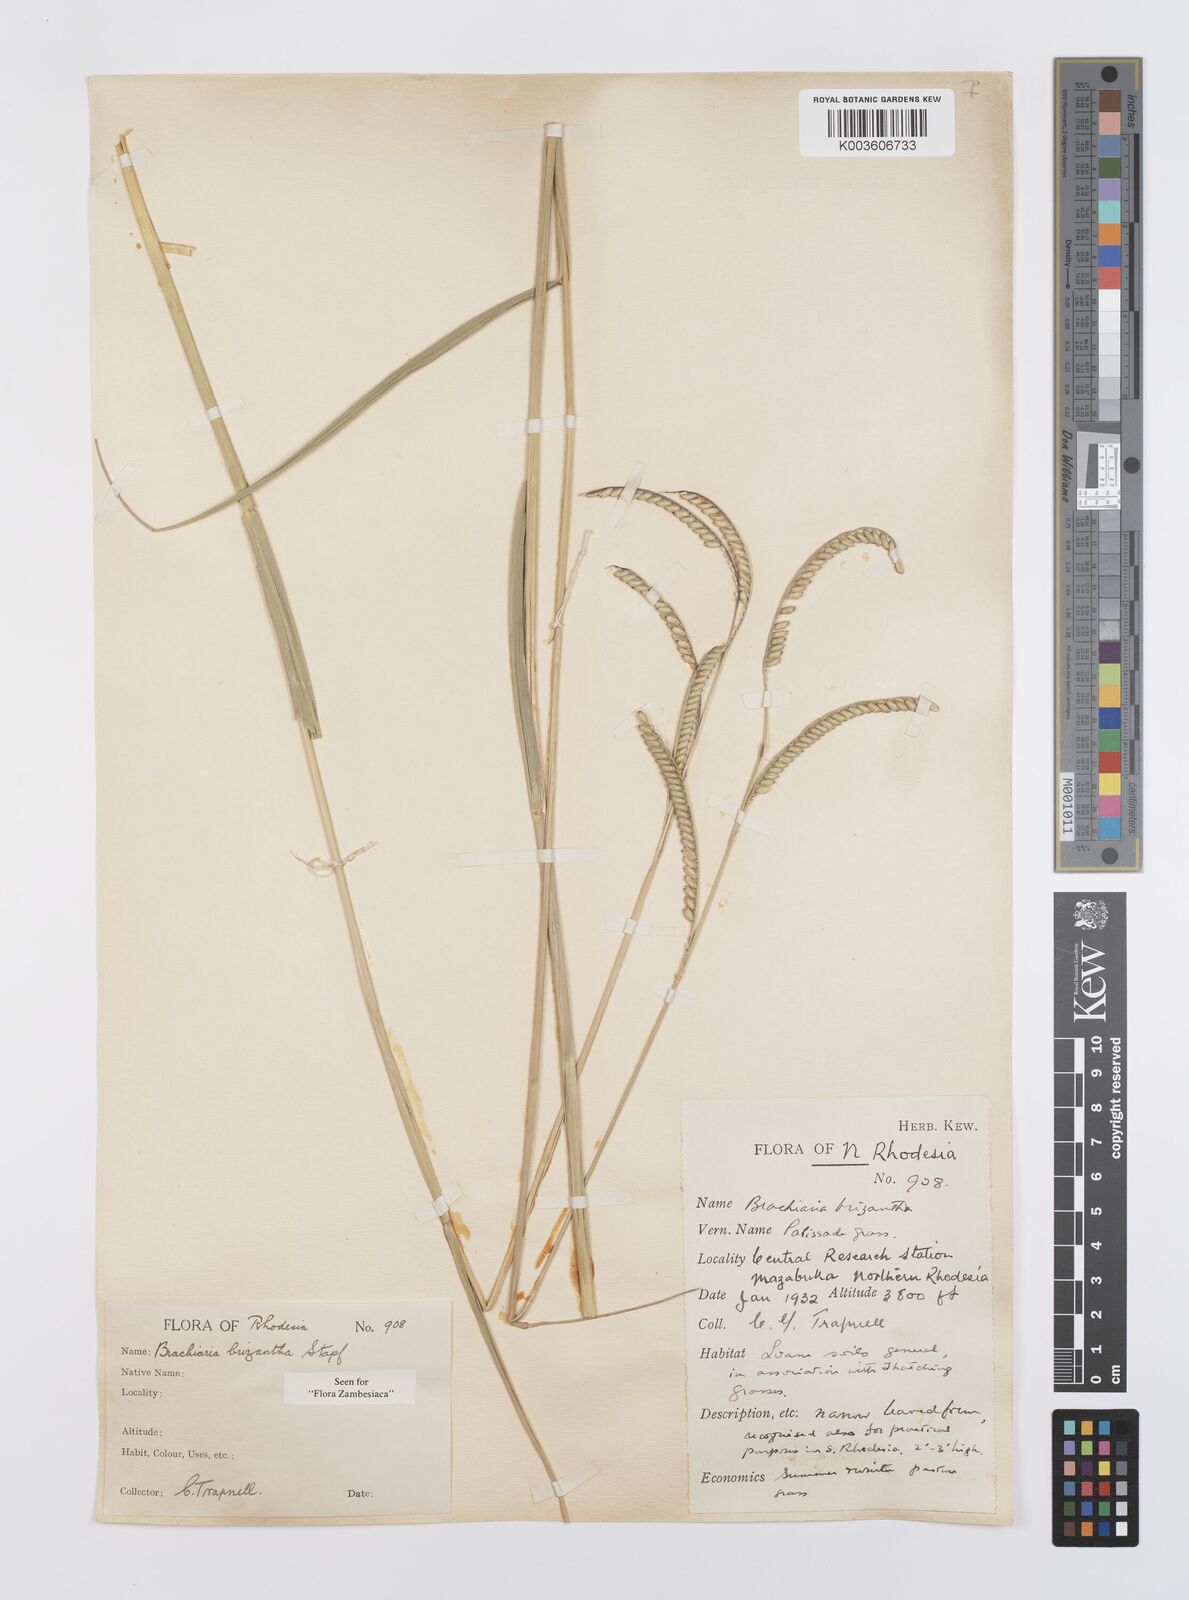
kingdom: Plantae
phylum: Tracheophyta
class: Liliopsida
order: Poales
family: Poaceae
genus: Urochloa
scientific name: Urochloa brizantha
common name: Palisade signalgrass
